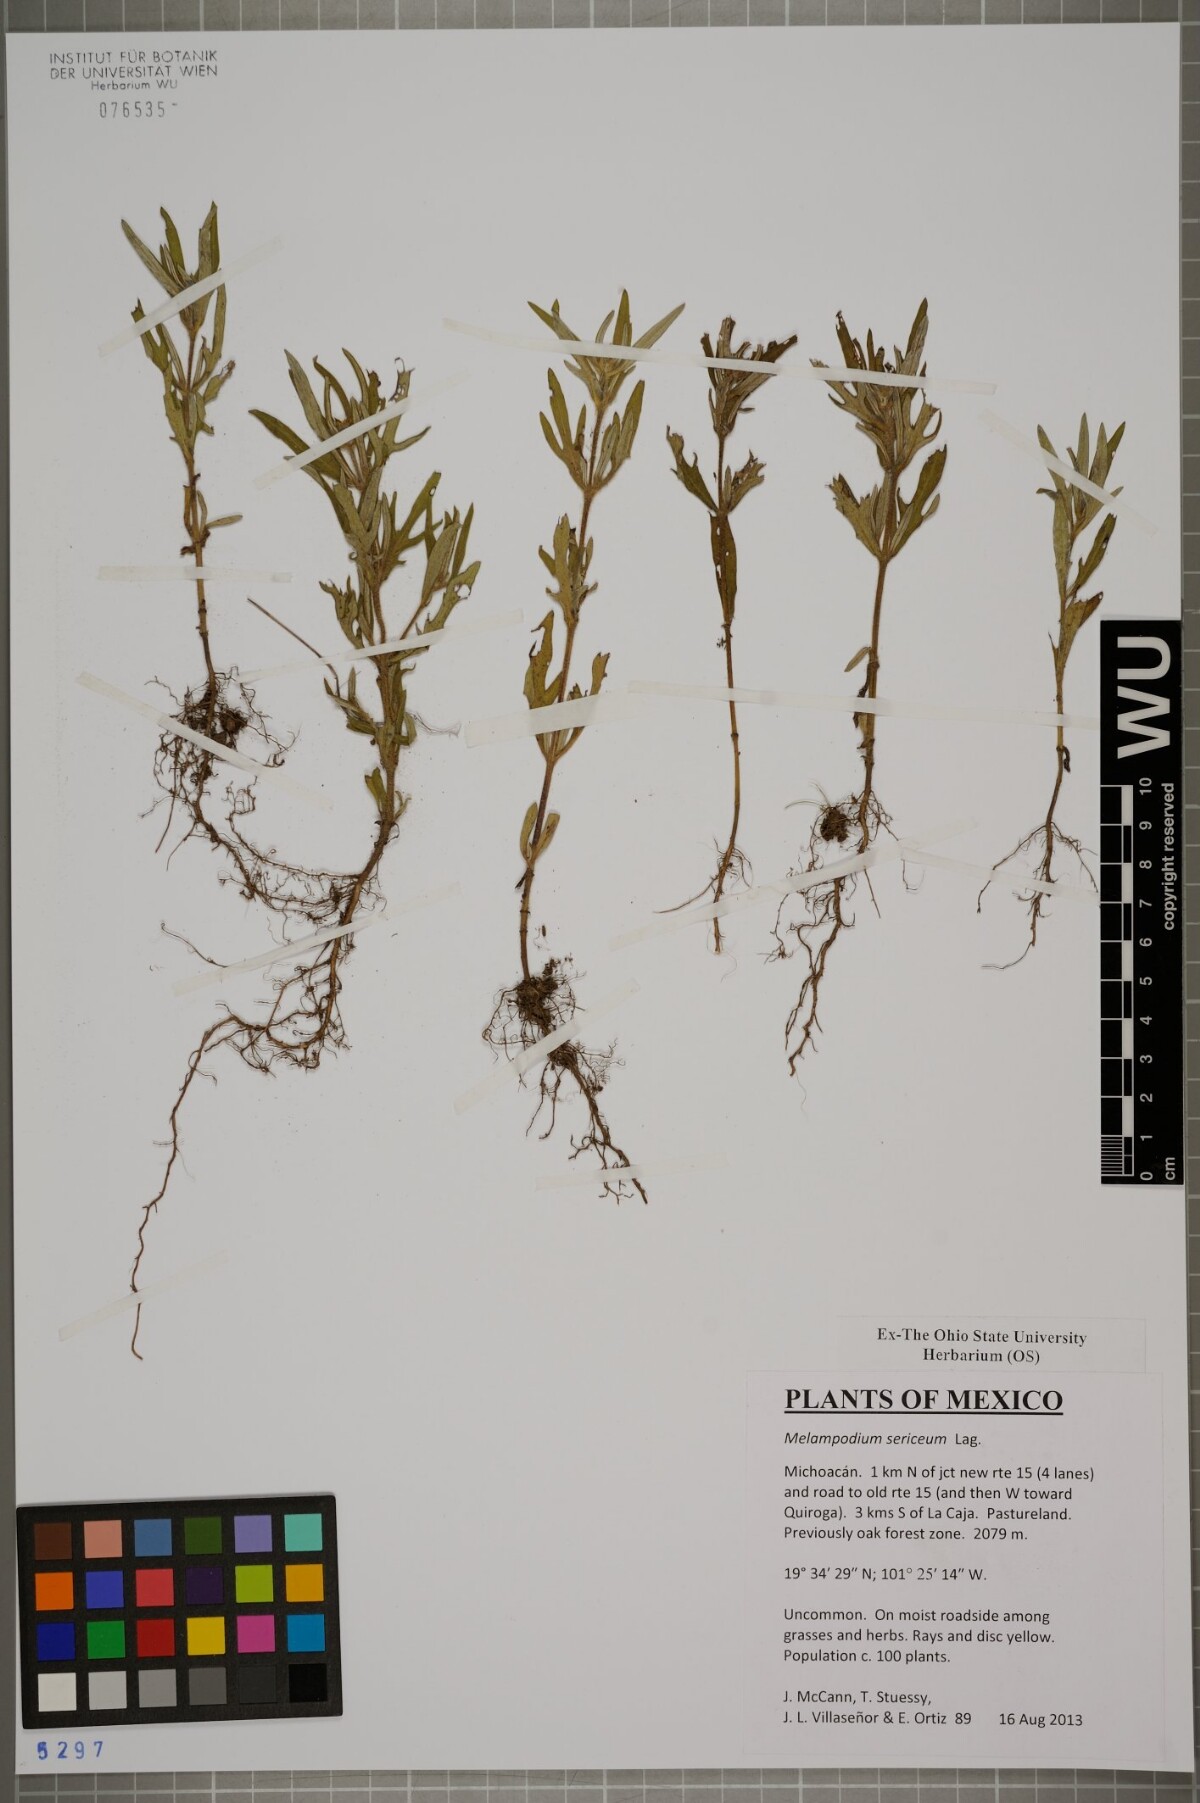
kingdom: Plantae
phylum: Tracheophyta
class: Magnoliopsida
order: Asterales
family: Asteraceae
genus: Melampodium
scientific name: Melampodium sericeum
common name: Rough blackfoot
